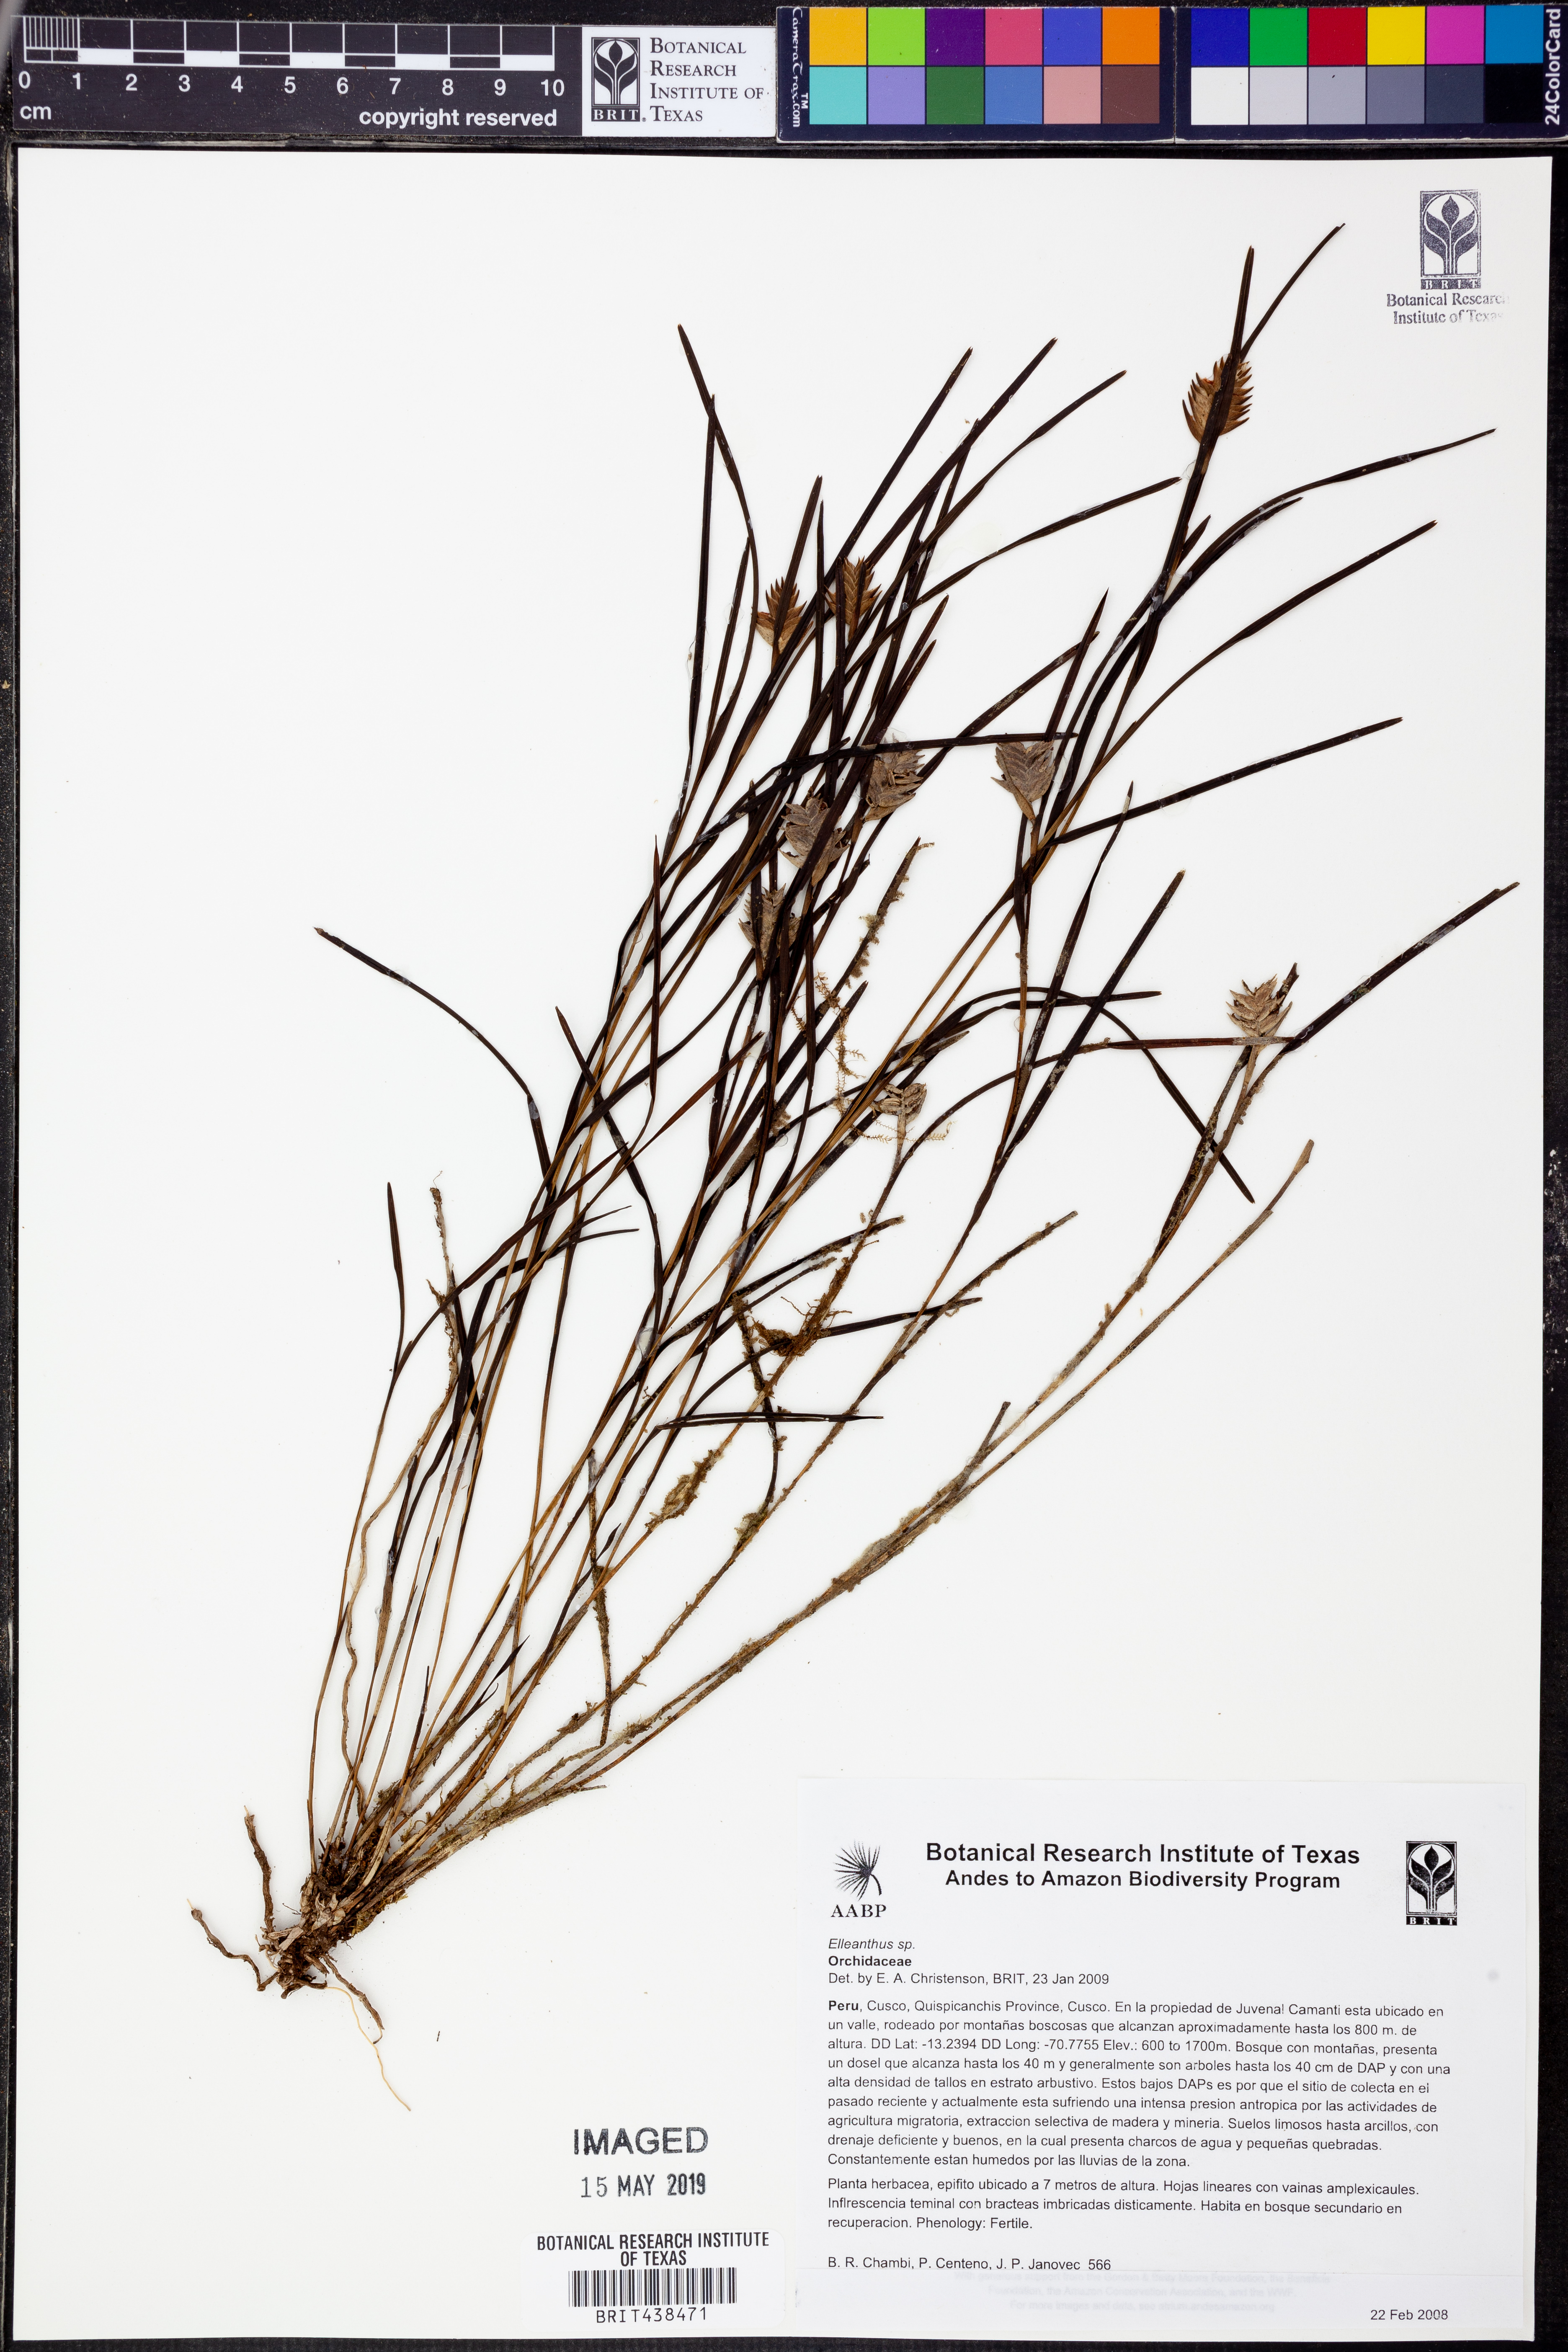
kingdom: Plantae
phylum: Tracheophyta
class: Liliopsida
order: Asparagales
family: Orchidaceae
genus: Elleanthus
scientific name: Elleanthus
